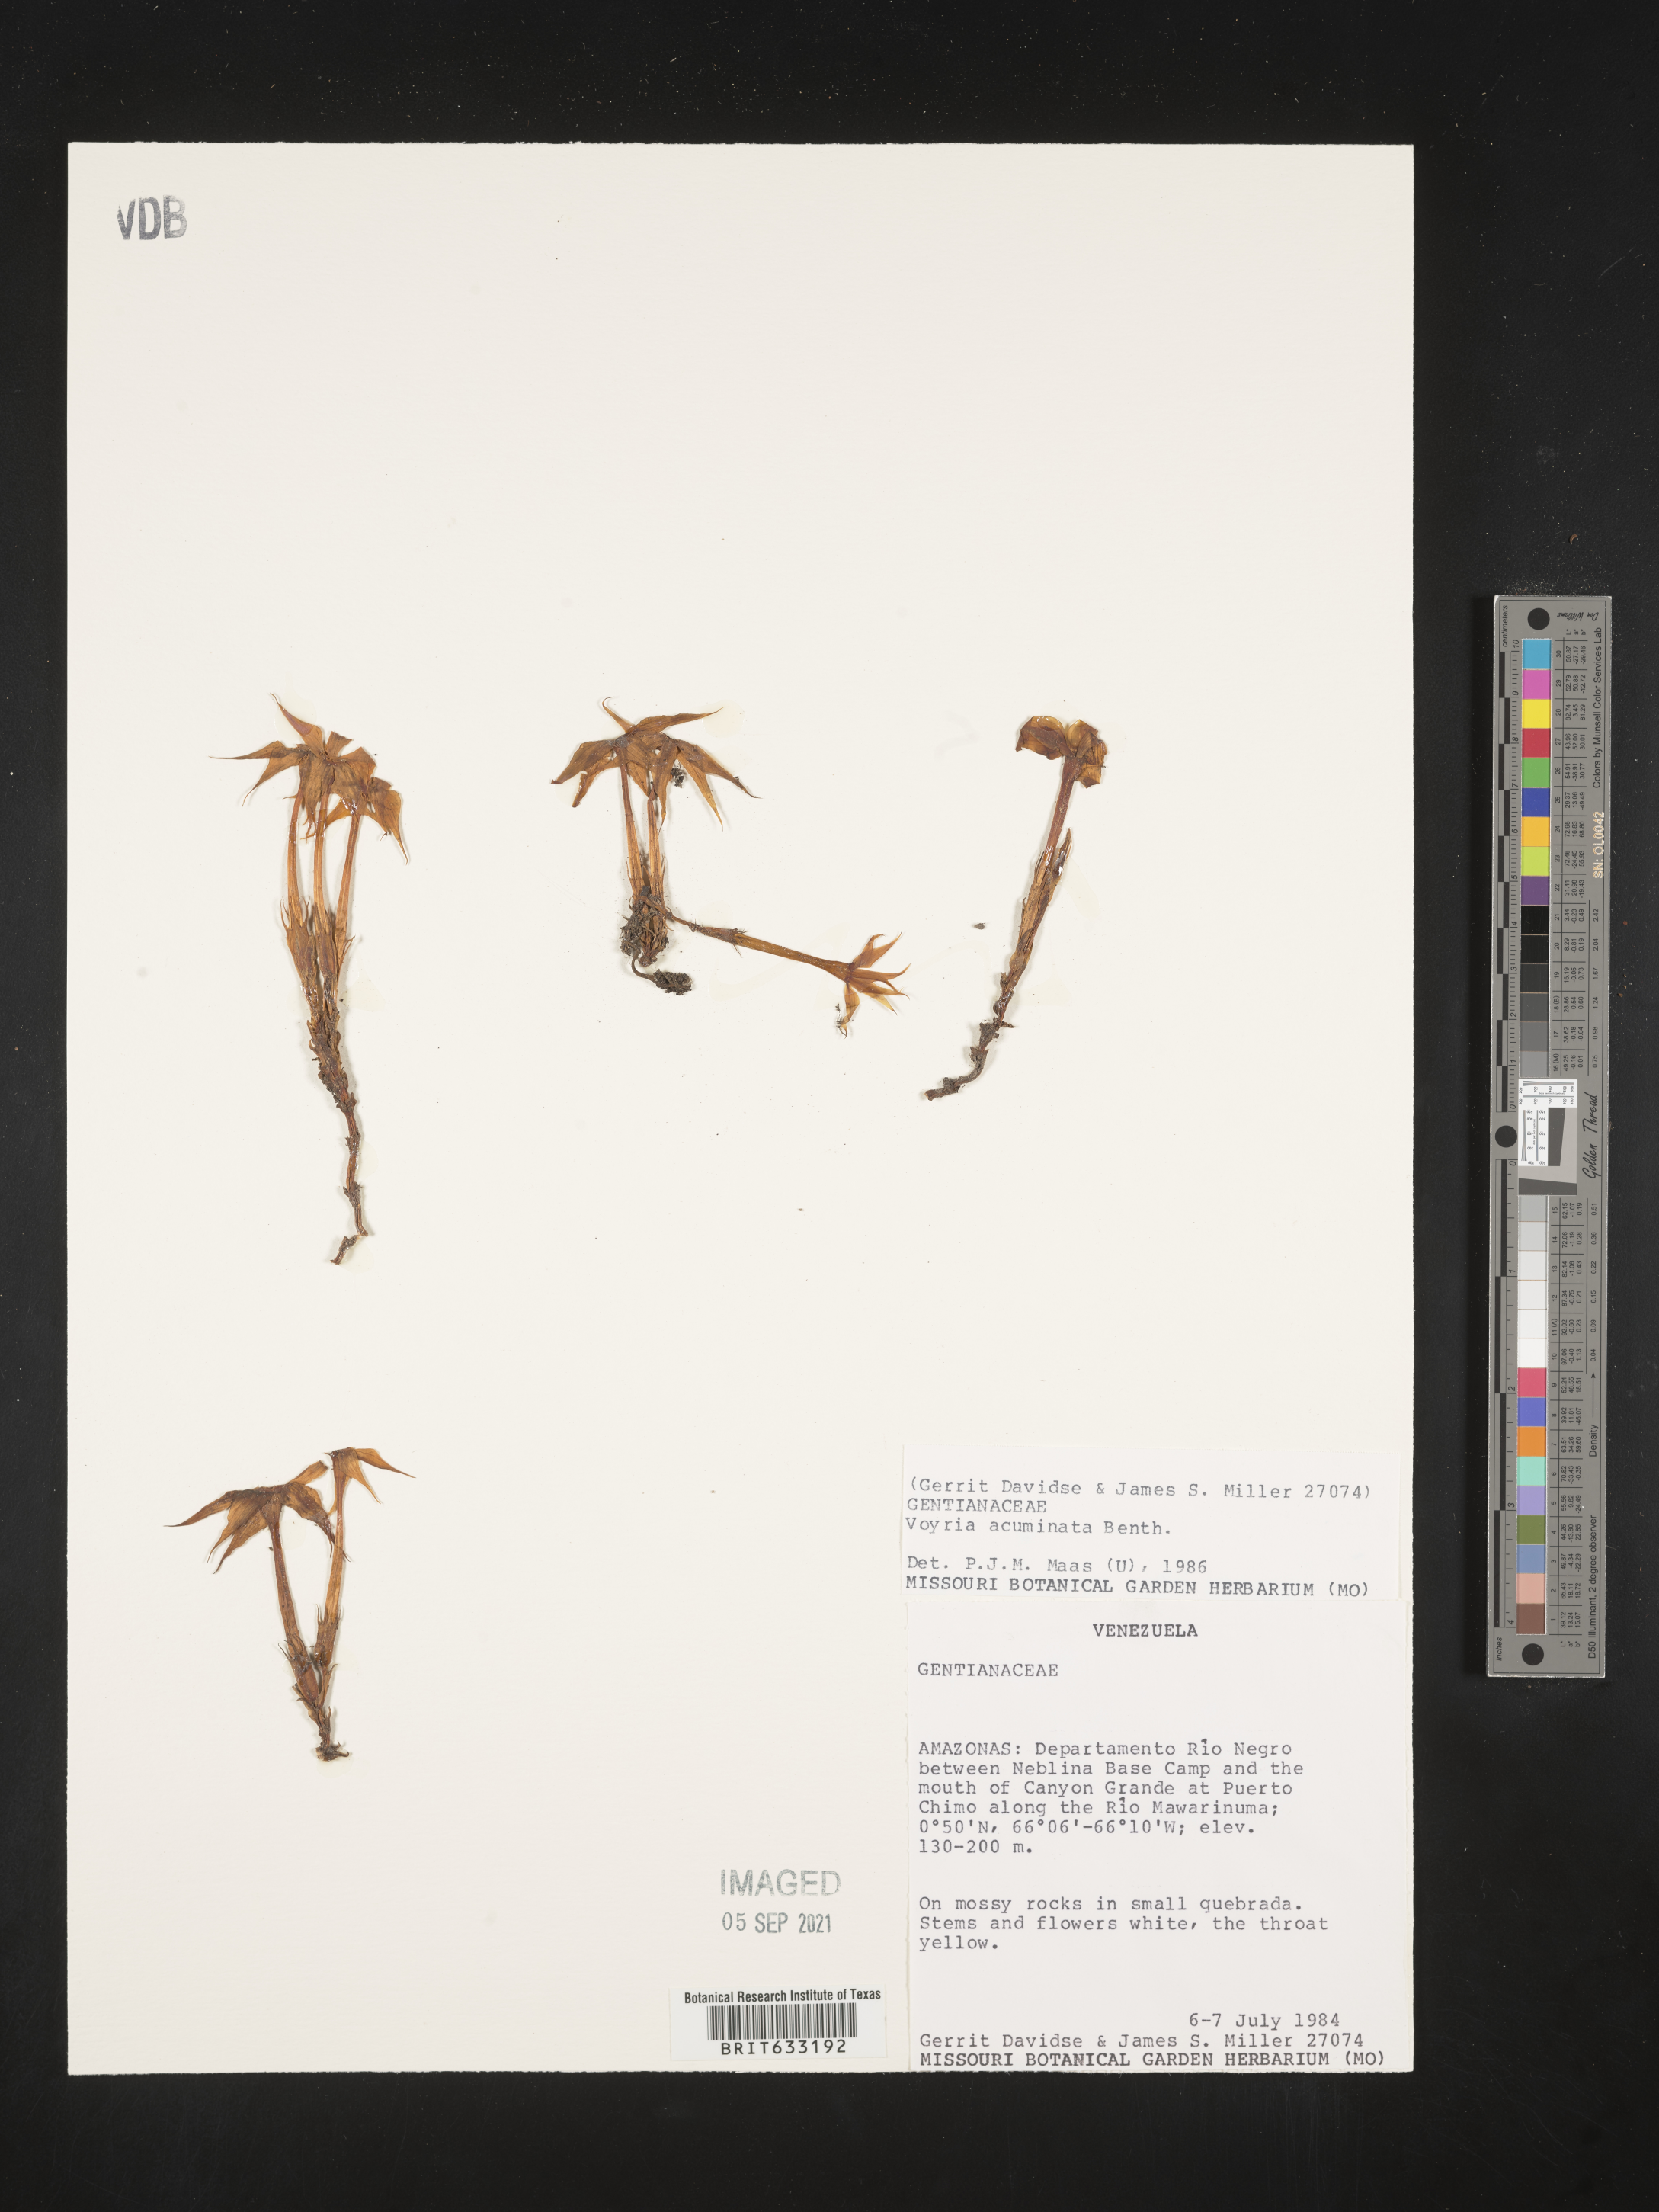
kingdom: Plantae
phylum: Tracheophyta
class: Magnoliopsida
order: Gentianales
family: Gentianaceae
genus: Voyria
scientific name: Voyria
